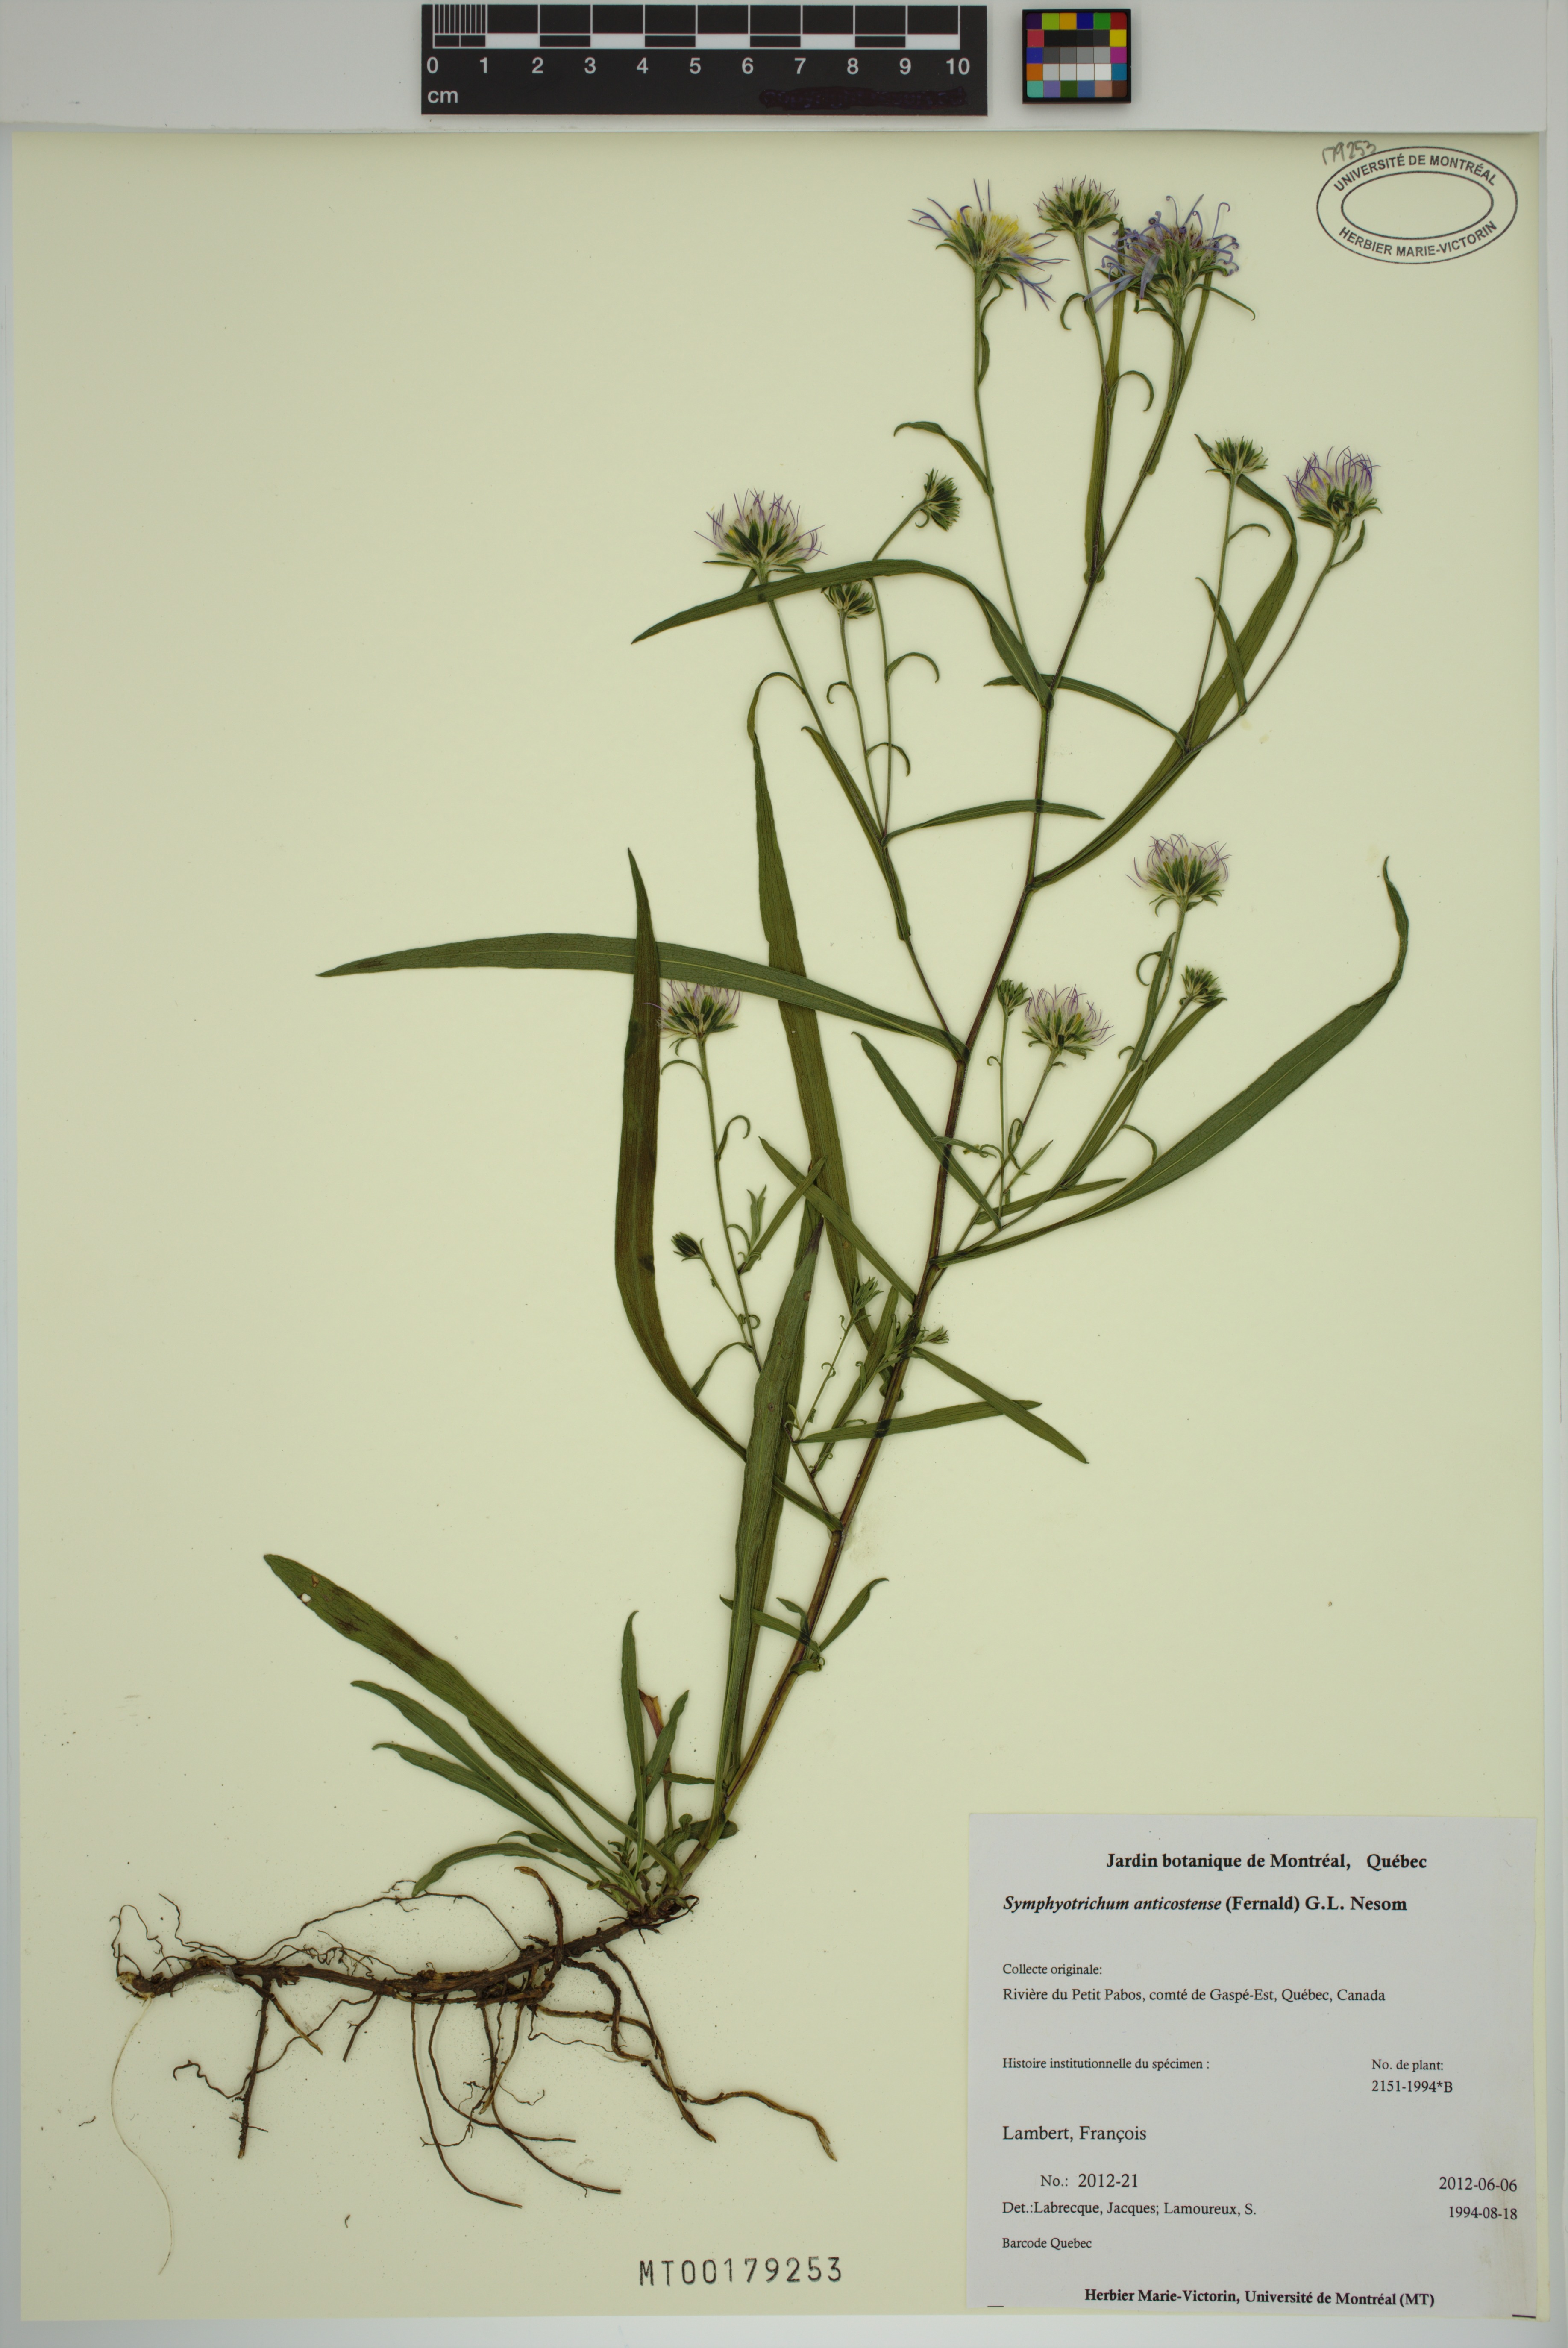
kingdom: Plantae
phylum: Tracheophyta
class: Magnoliopsida
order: Asterales
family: Asteraceae
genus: Symphyotrichum
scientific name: Symphyotrichum anticostense
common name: Anticosti island aster
